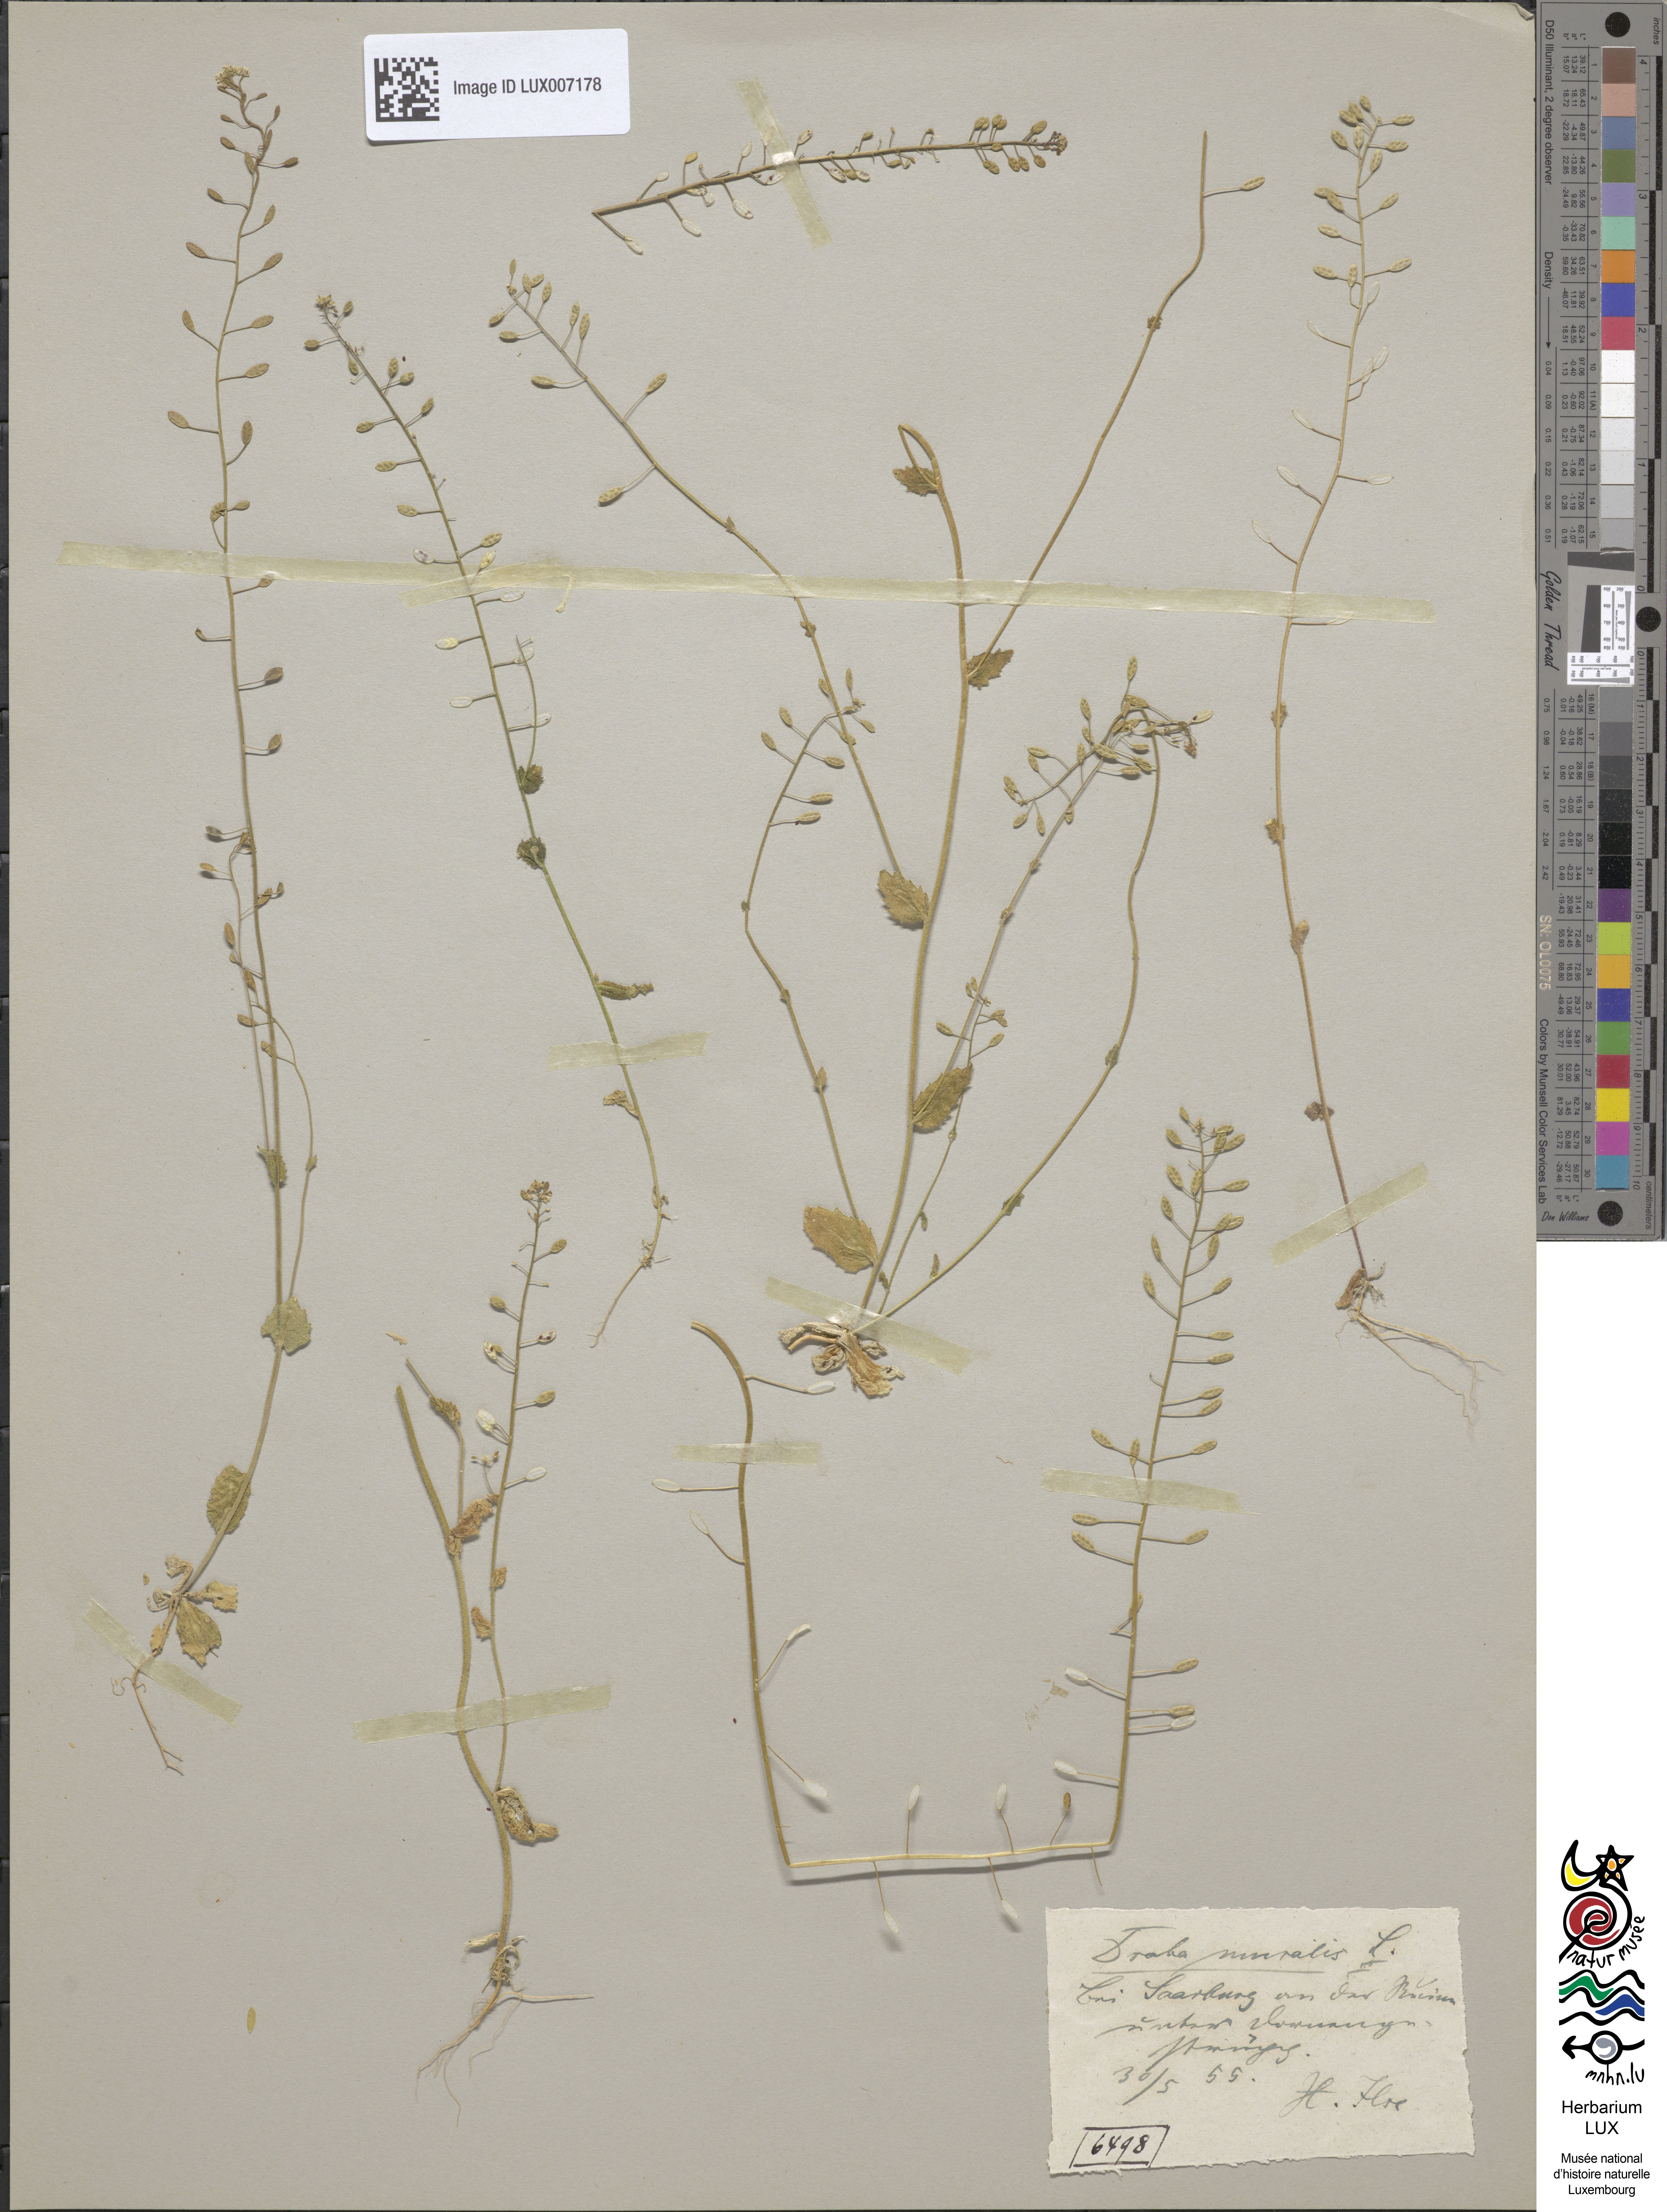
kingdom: Plantae
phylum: Tracheophyta
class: Magnoliopsida
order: Brassicales
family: Brassicaceae
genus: Drabella
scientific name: Drabella muralis
